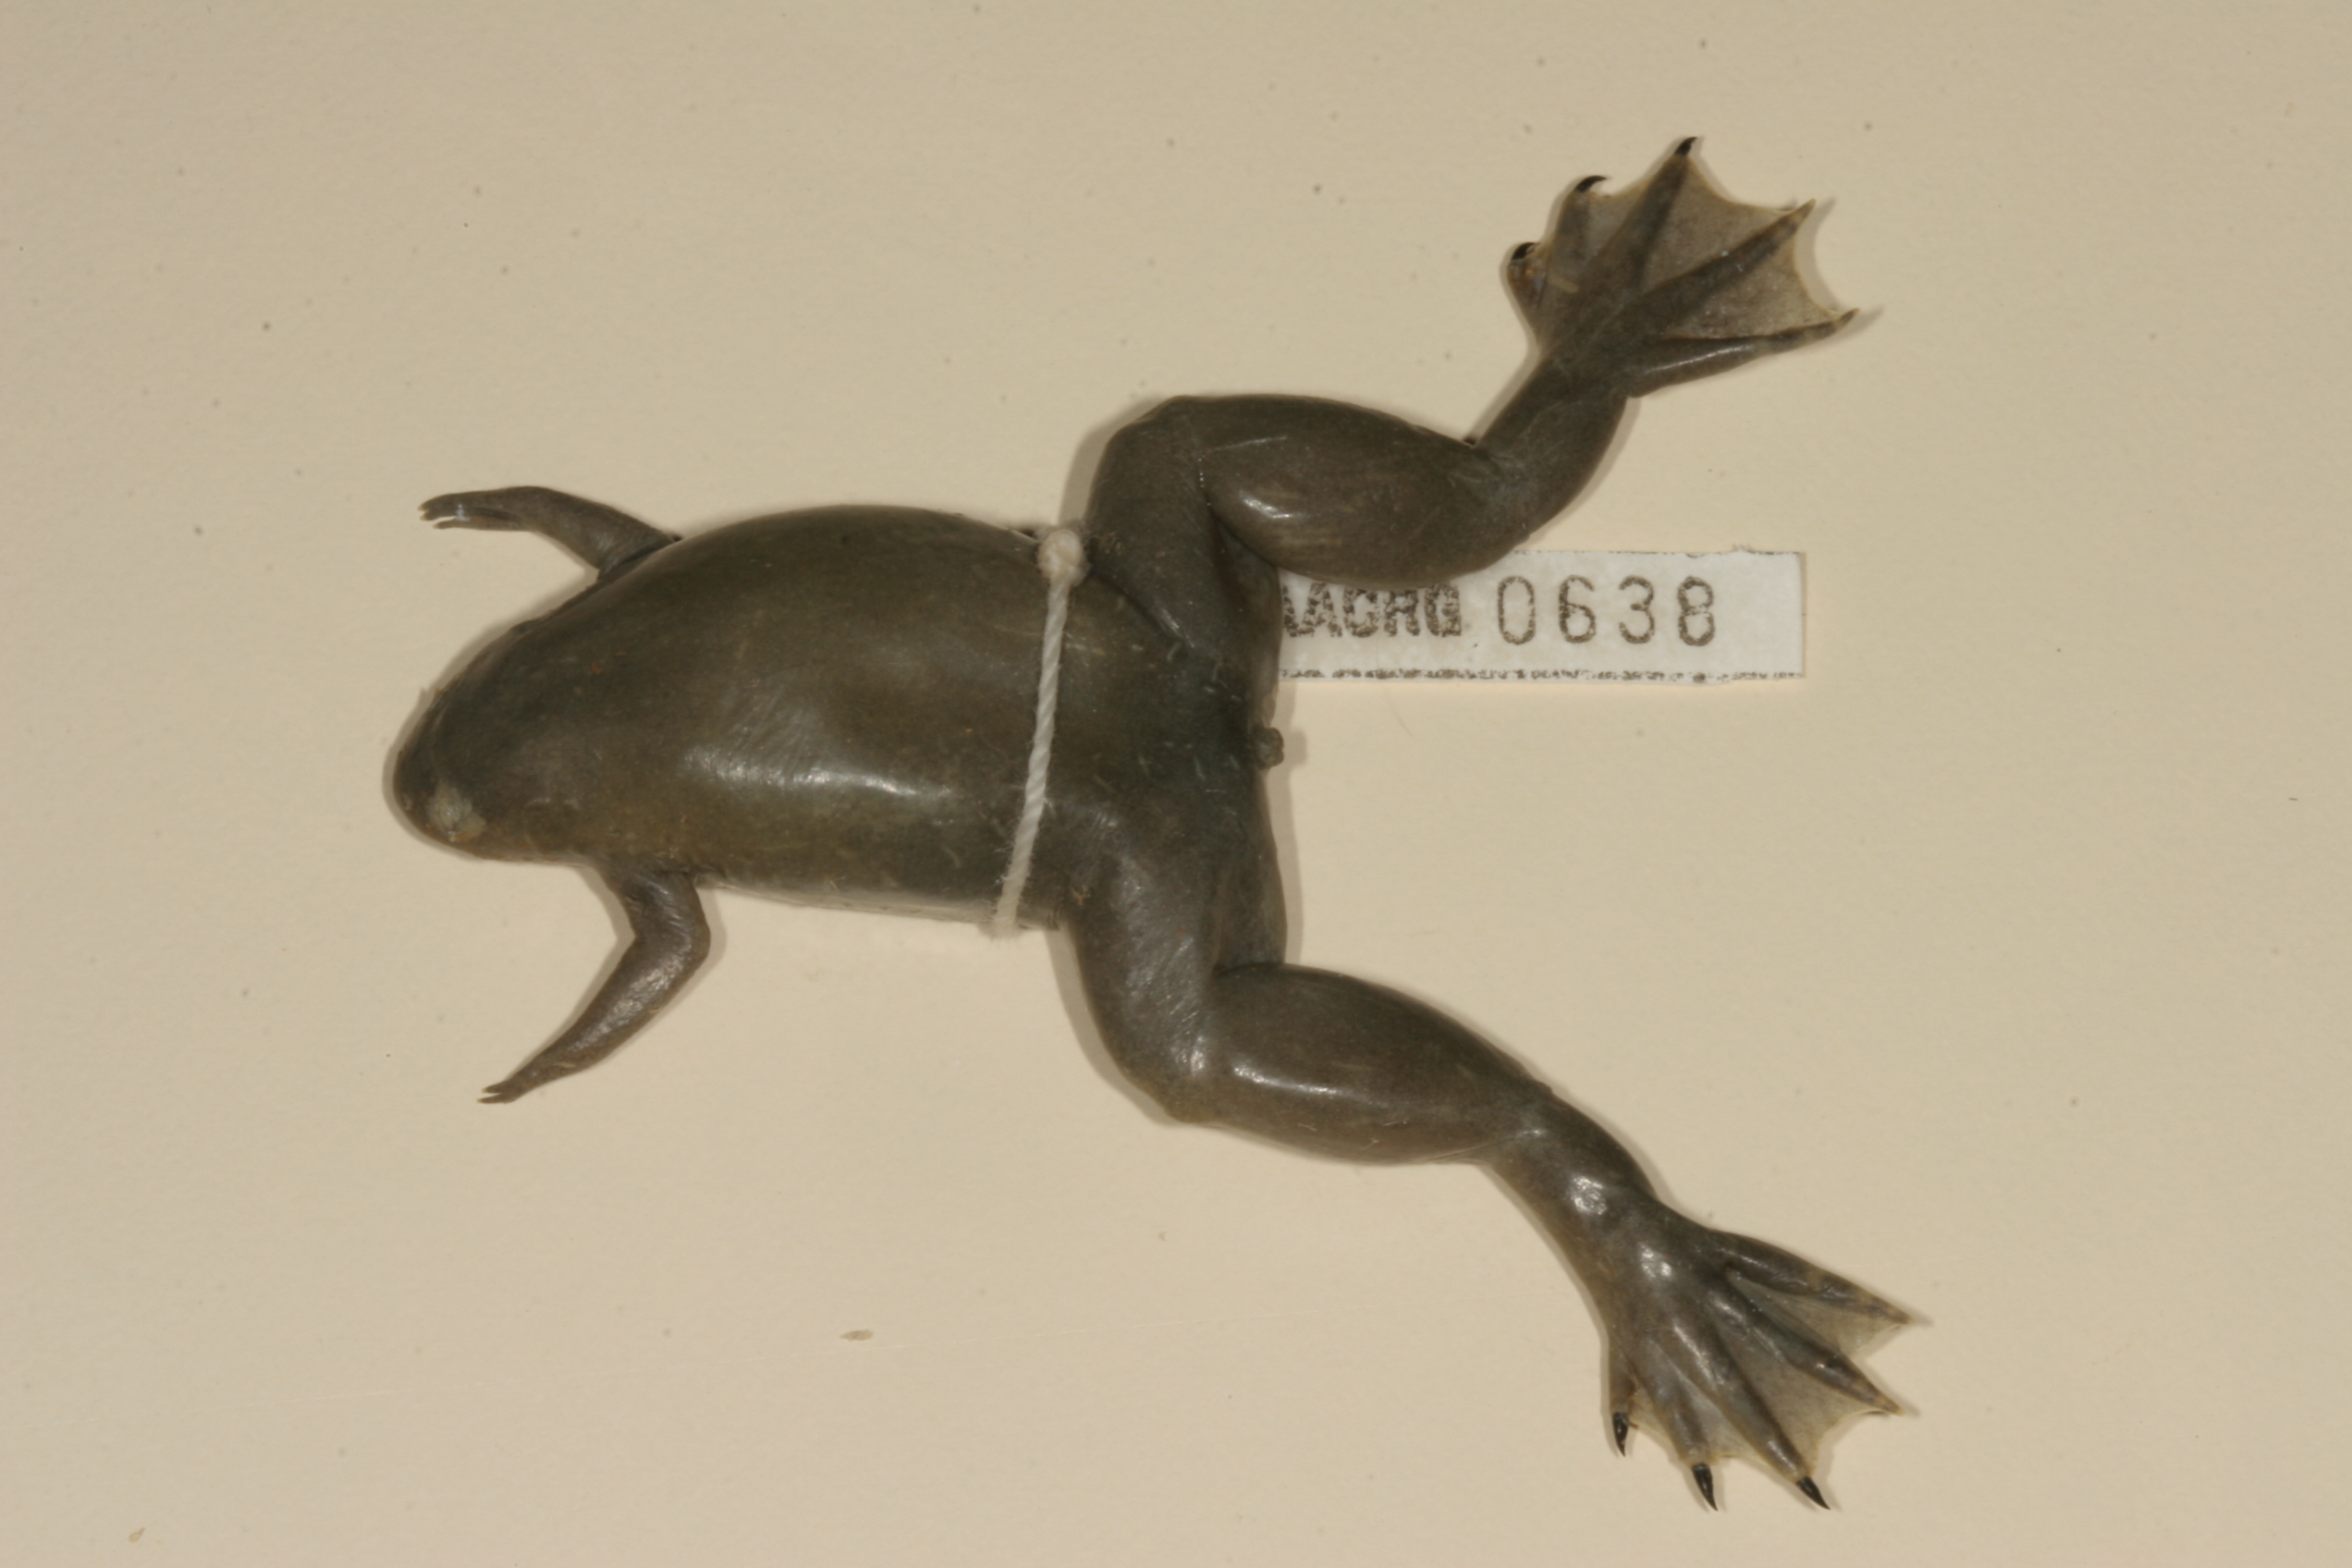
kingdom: Animalia
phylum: Chordata
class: Amphibia
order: Anura
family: Pipidae
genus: Xenopus
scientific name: Xenopus tropicalis
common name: Forest clawed frog
